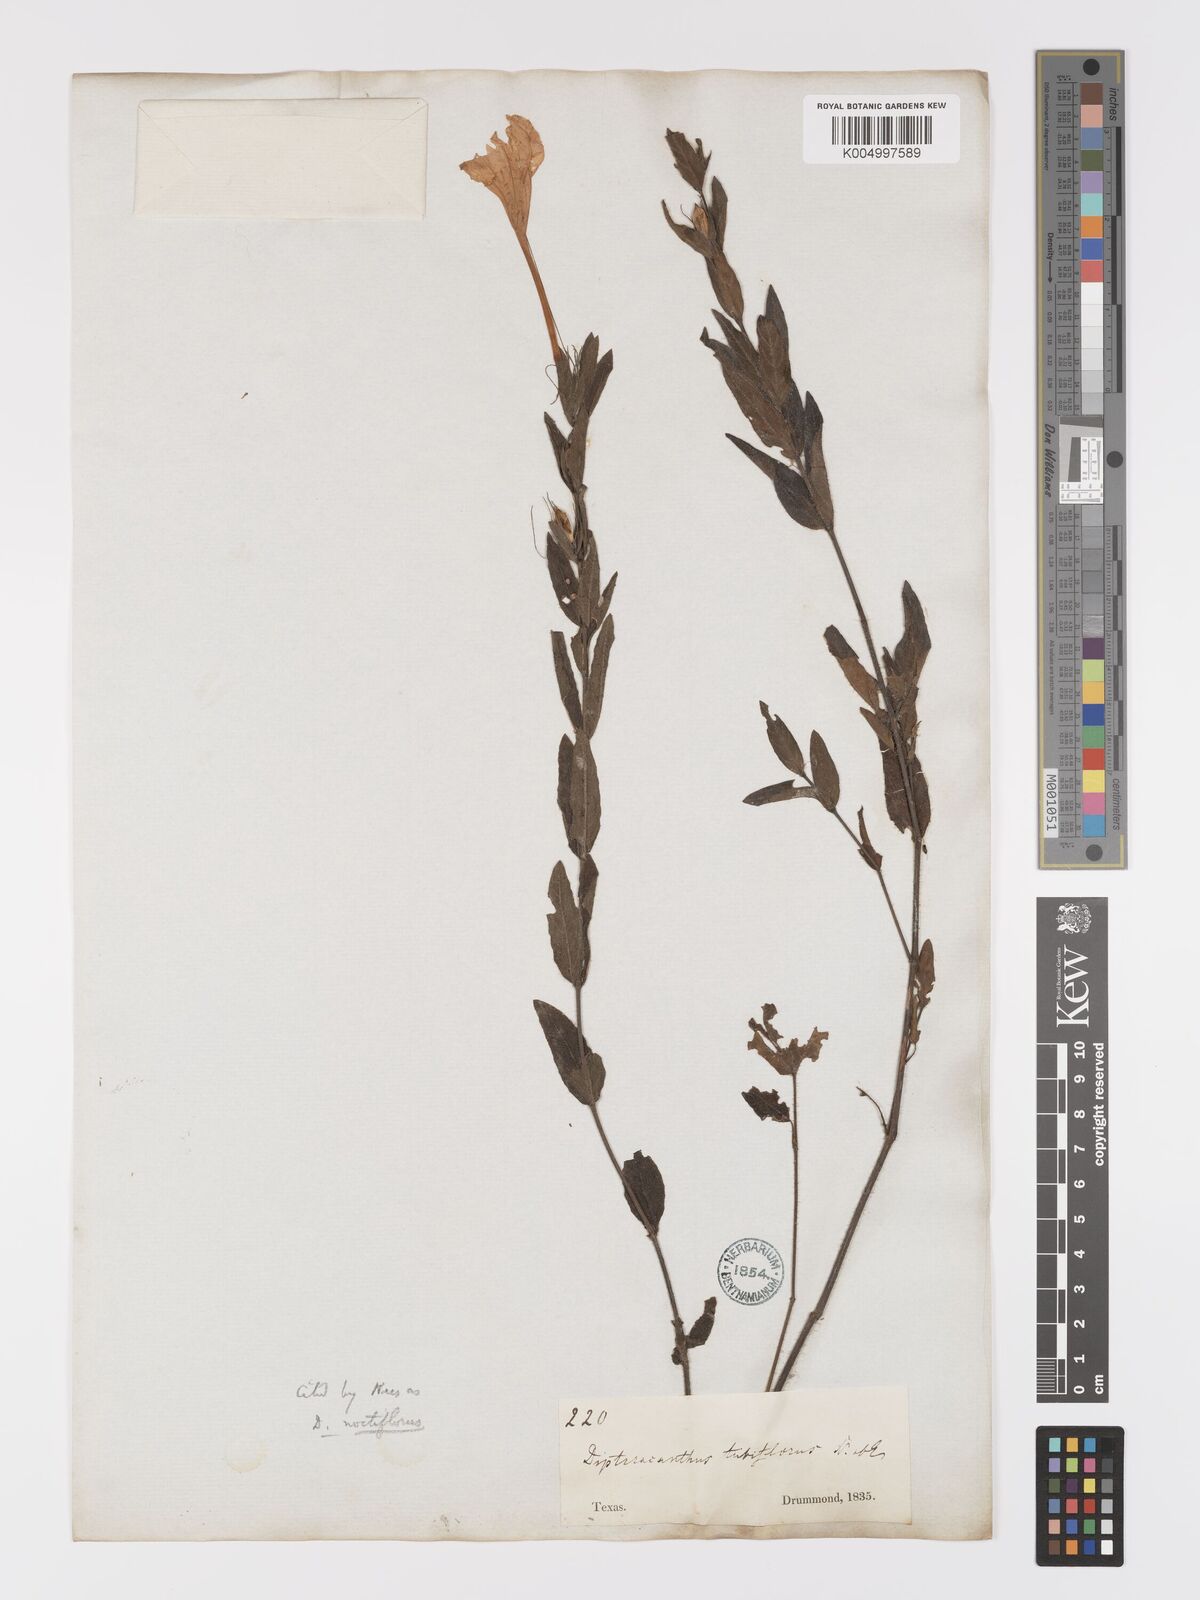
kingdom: Plantae
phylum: Tracheophyta
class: Magnoliopsida
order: Lamiales
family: Acanthaceae
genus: Ruellia
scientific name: Ruellia ciliatiflora
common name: Hairyflower wild petunia
